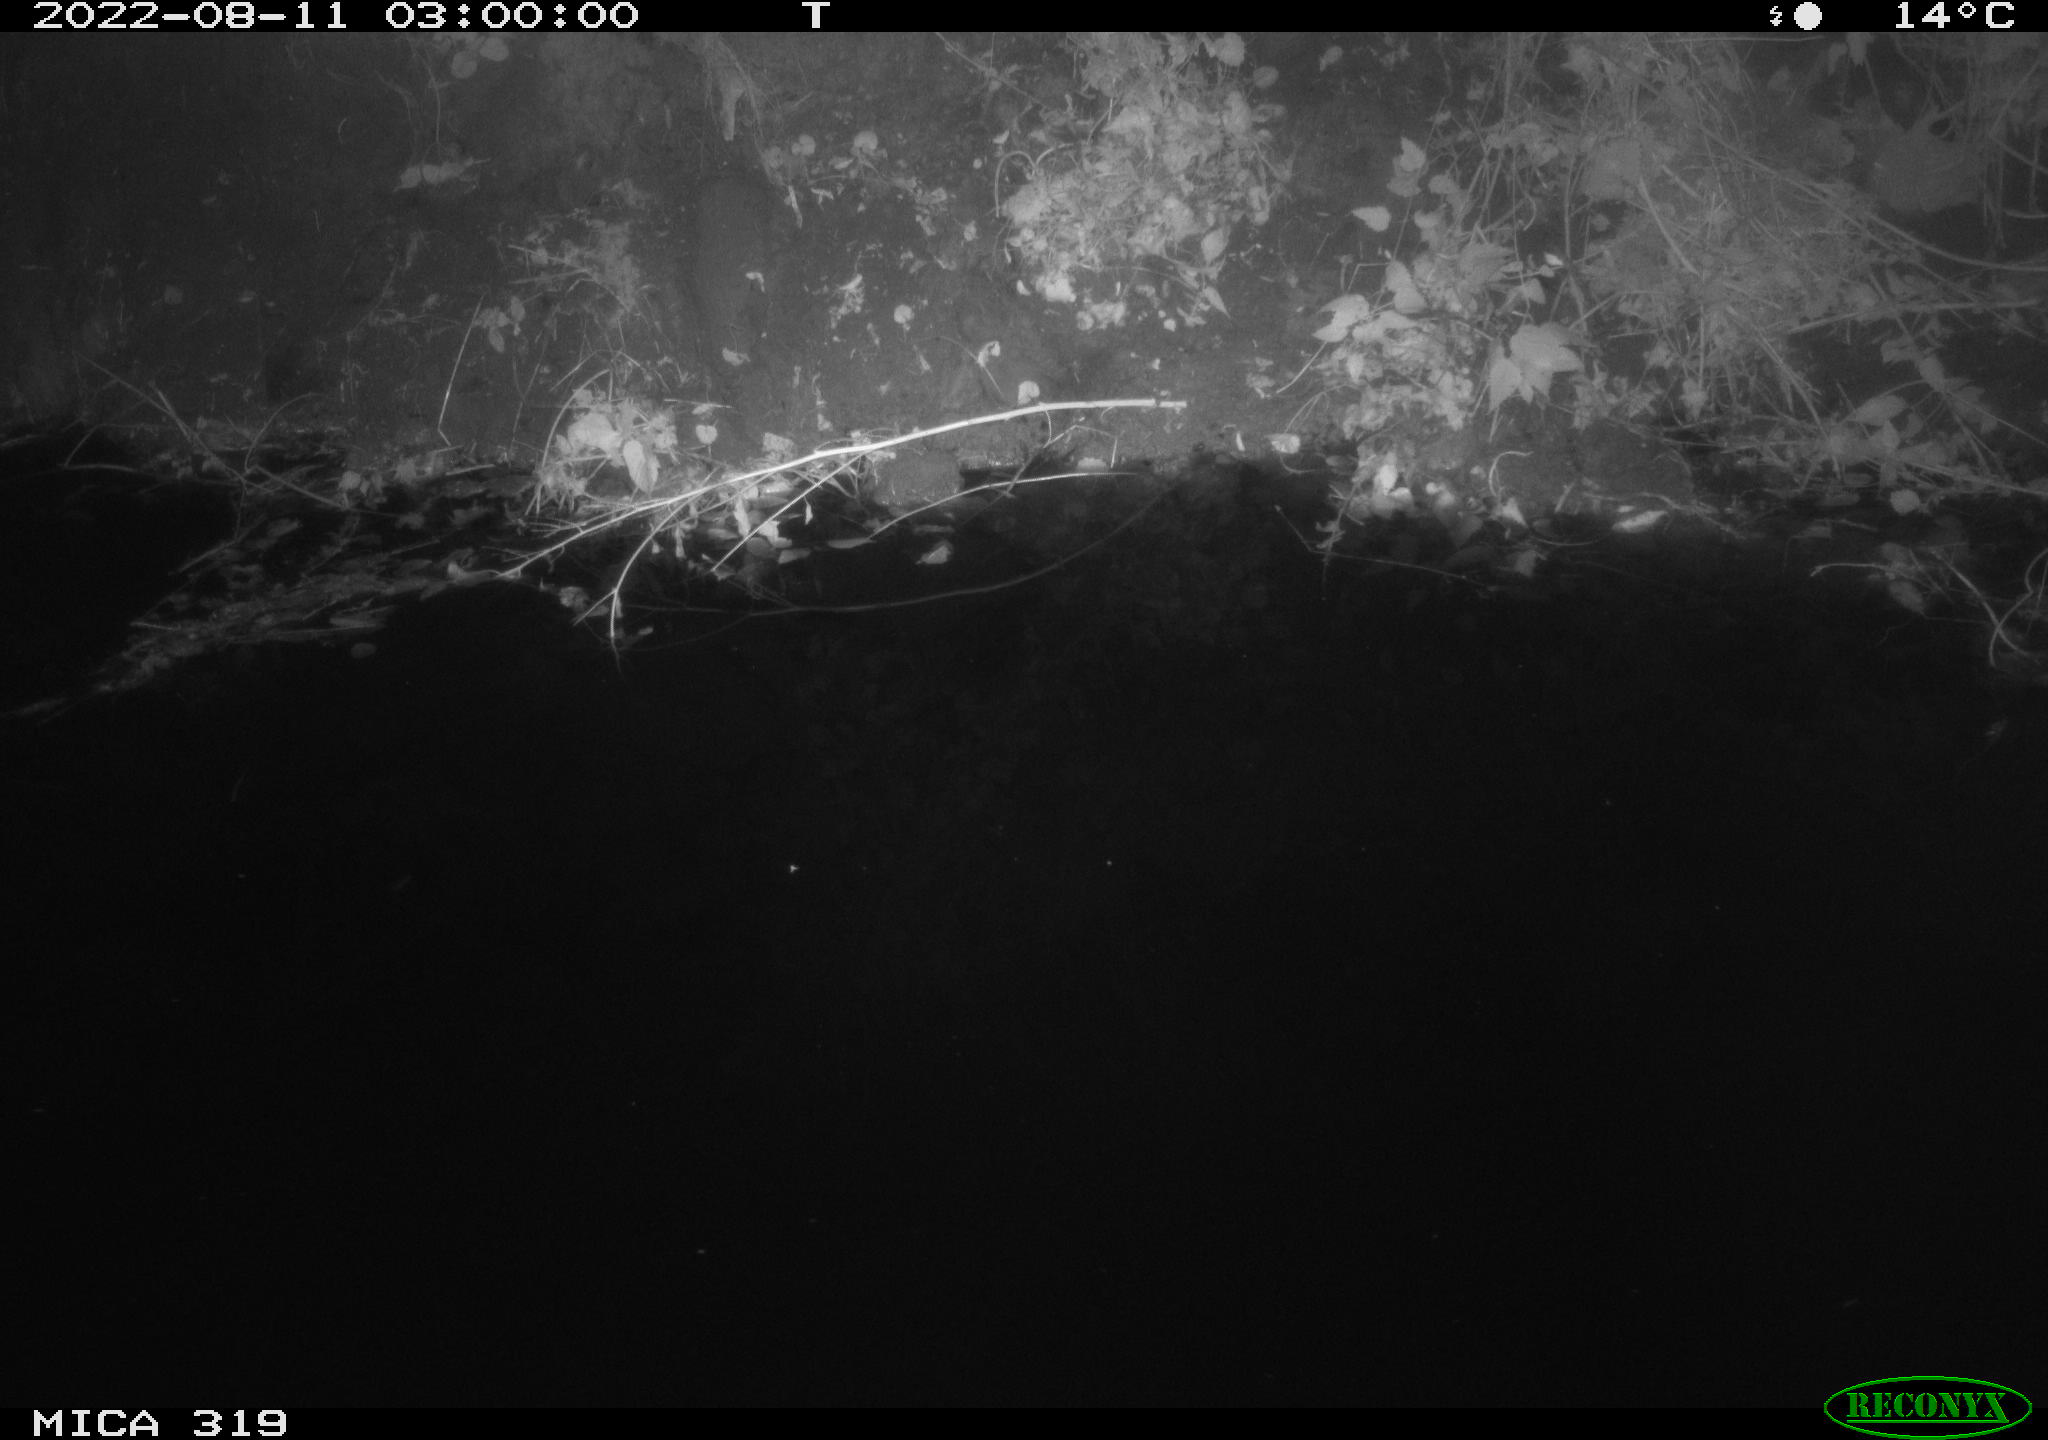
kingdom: Animalia
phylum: Chordata
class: Mammalia
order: Rodentia
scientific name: Rodentia
